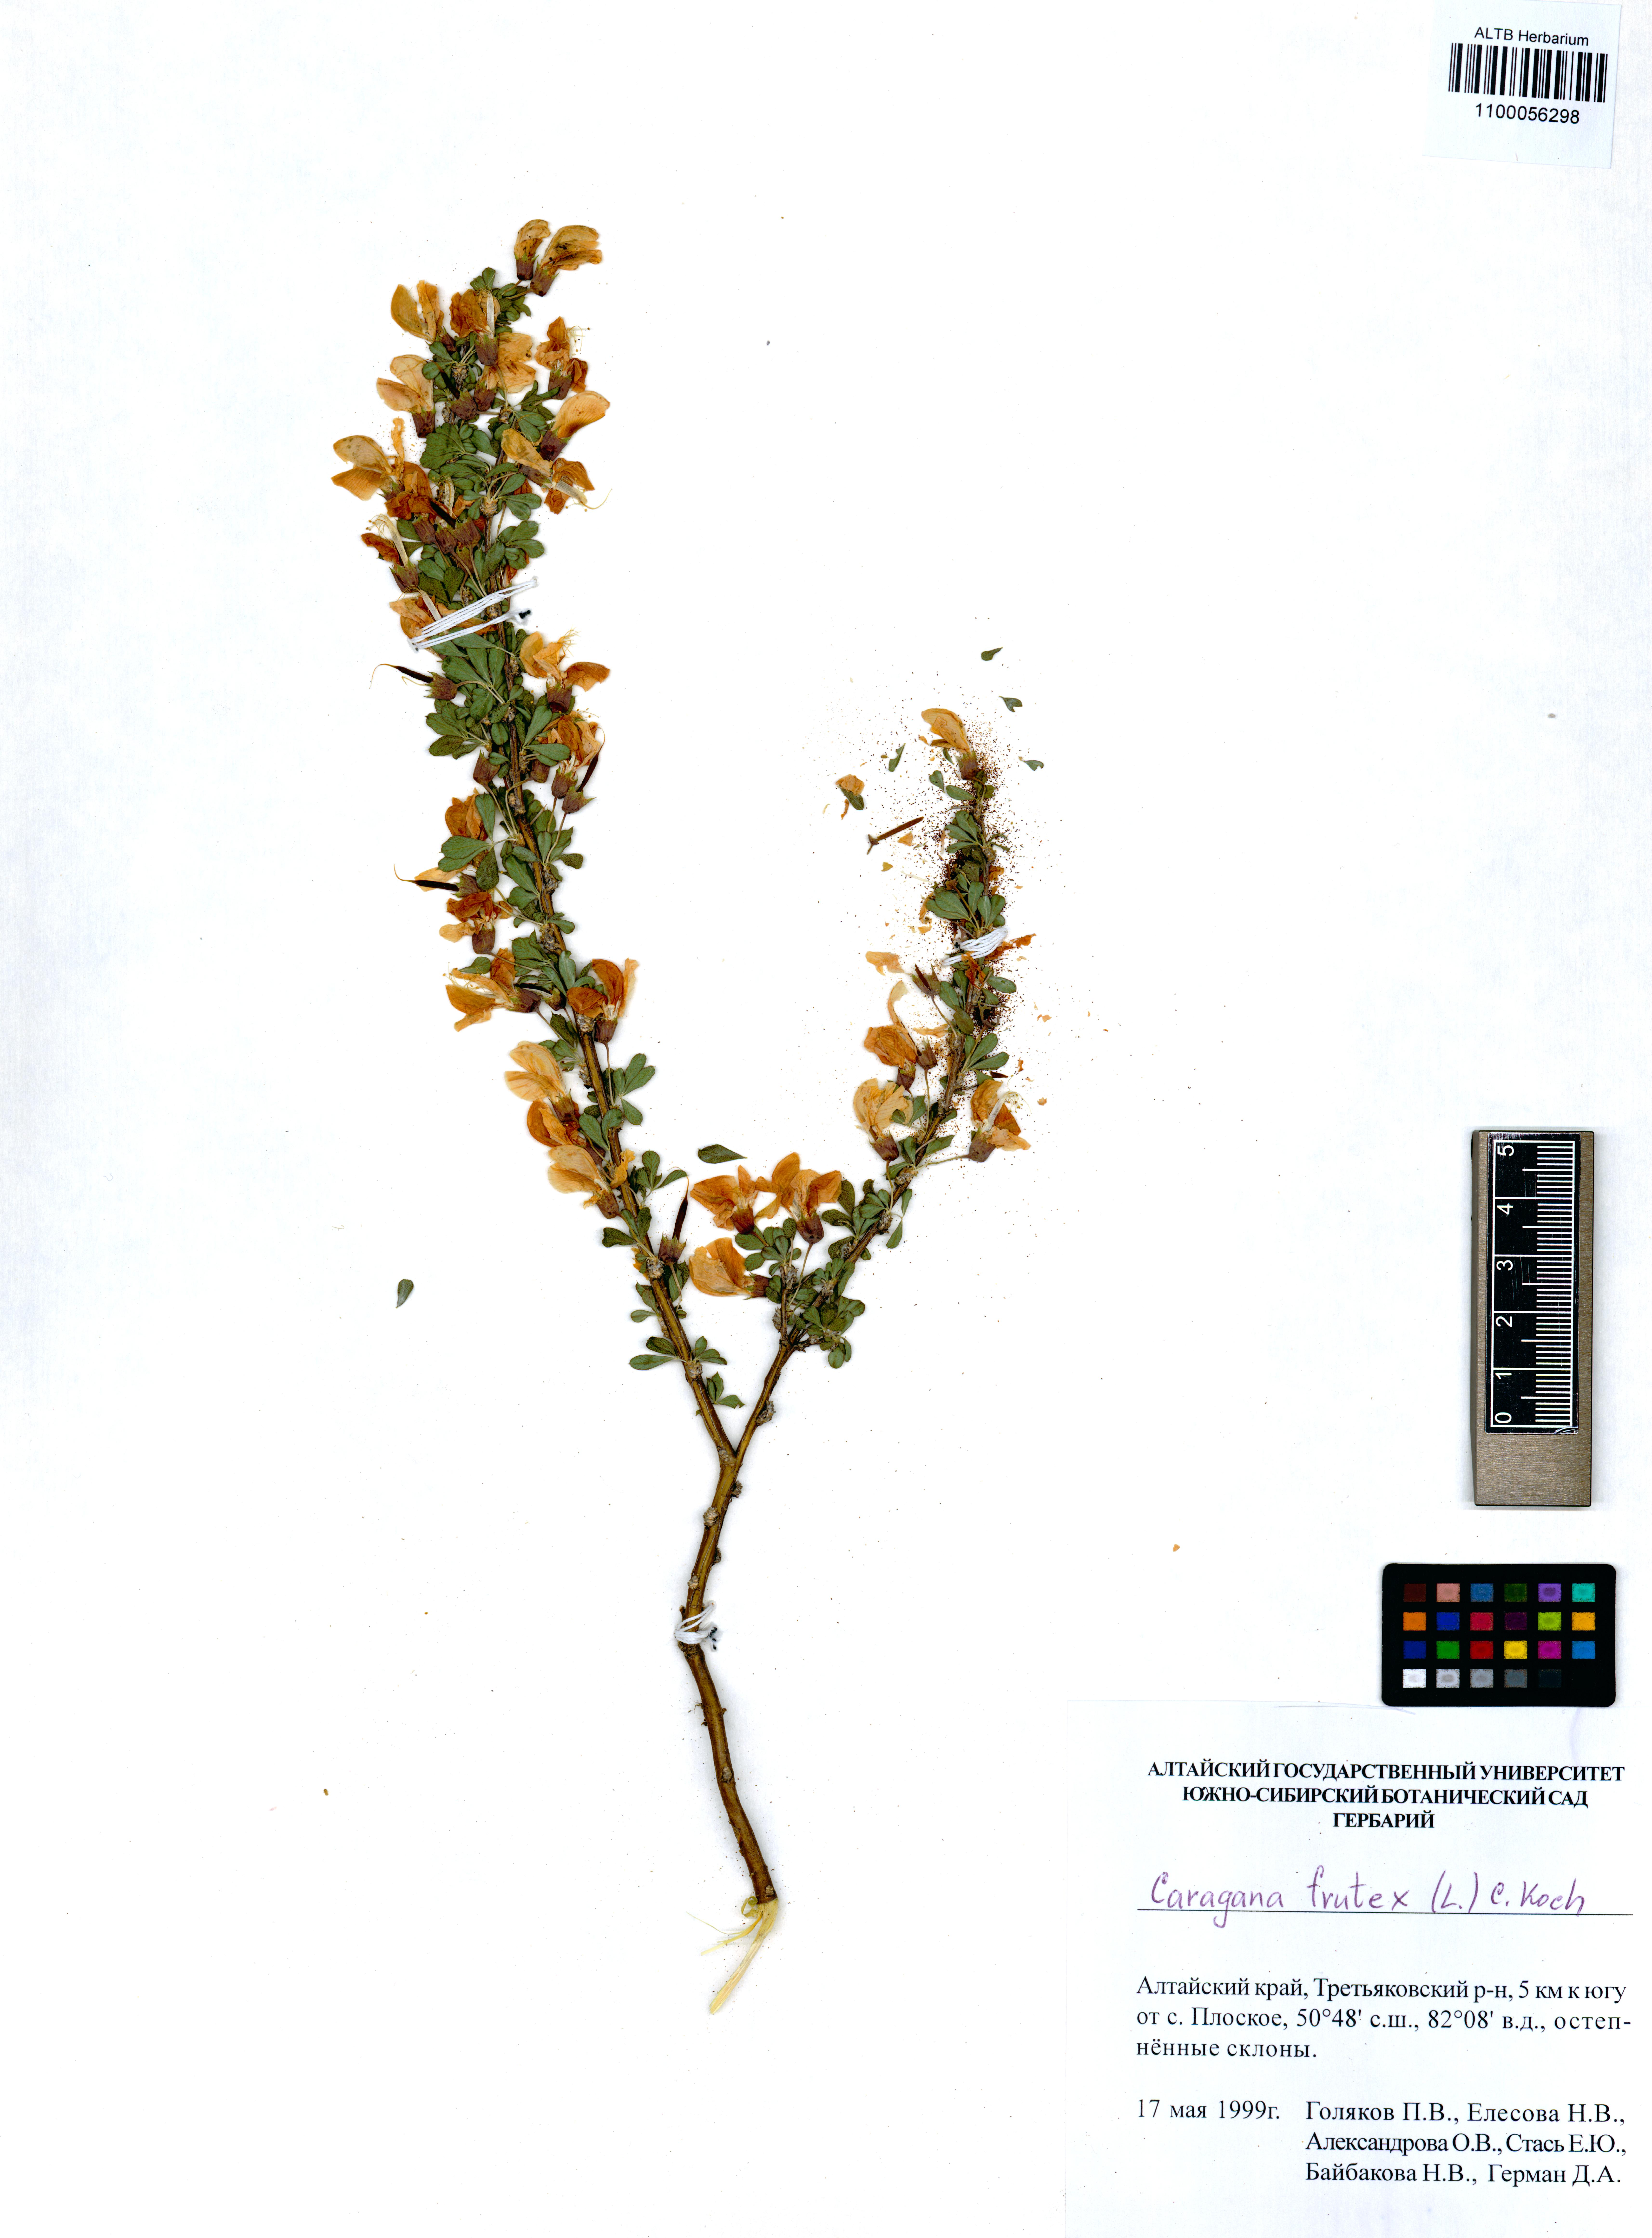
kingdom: Plantae
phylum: Tracheophyta
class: Magnoliopsida
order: Fabales
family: Fabaceae
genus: Caragana
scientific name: Caragana frutex
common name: Russian peashrub
